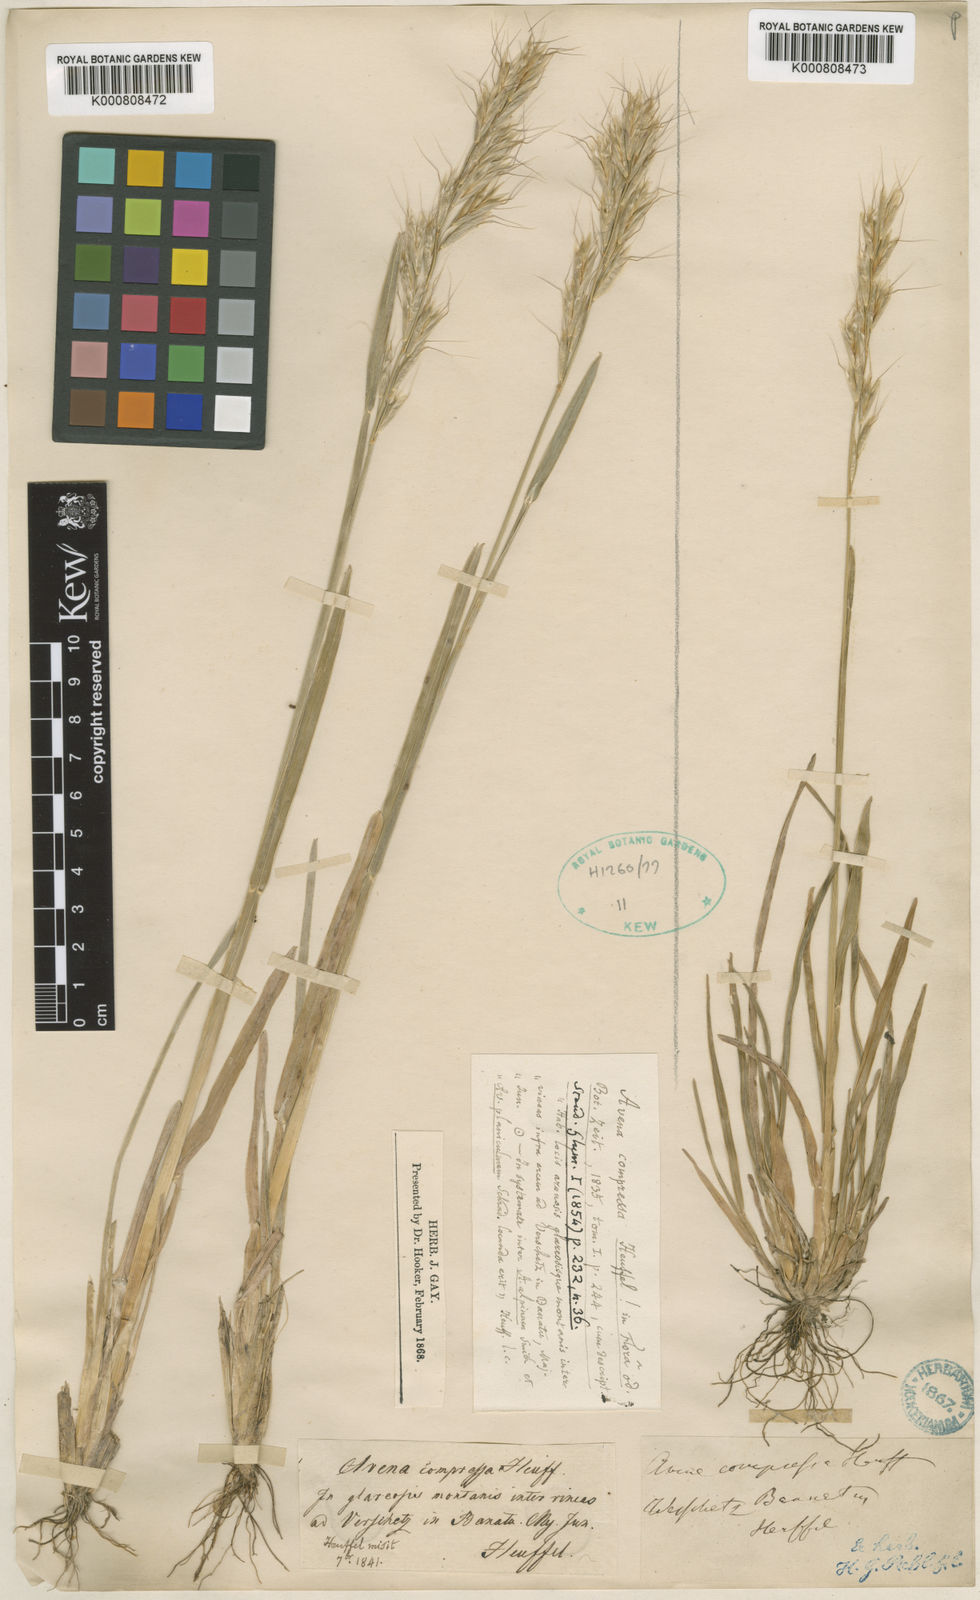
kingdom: Plantae
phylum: Tracheophyta
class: Liliopsida
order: Poales
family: Poaceae
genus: Helictochloa
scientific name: Helictochloa compressa
